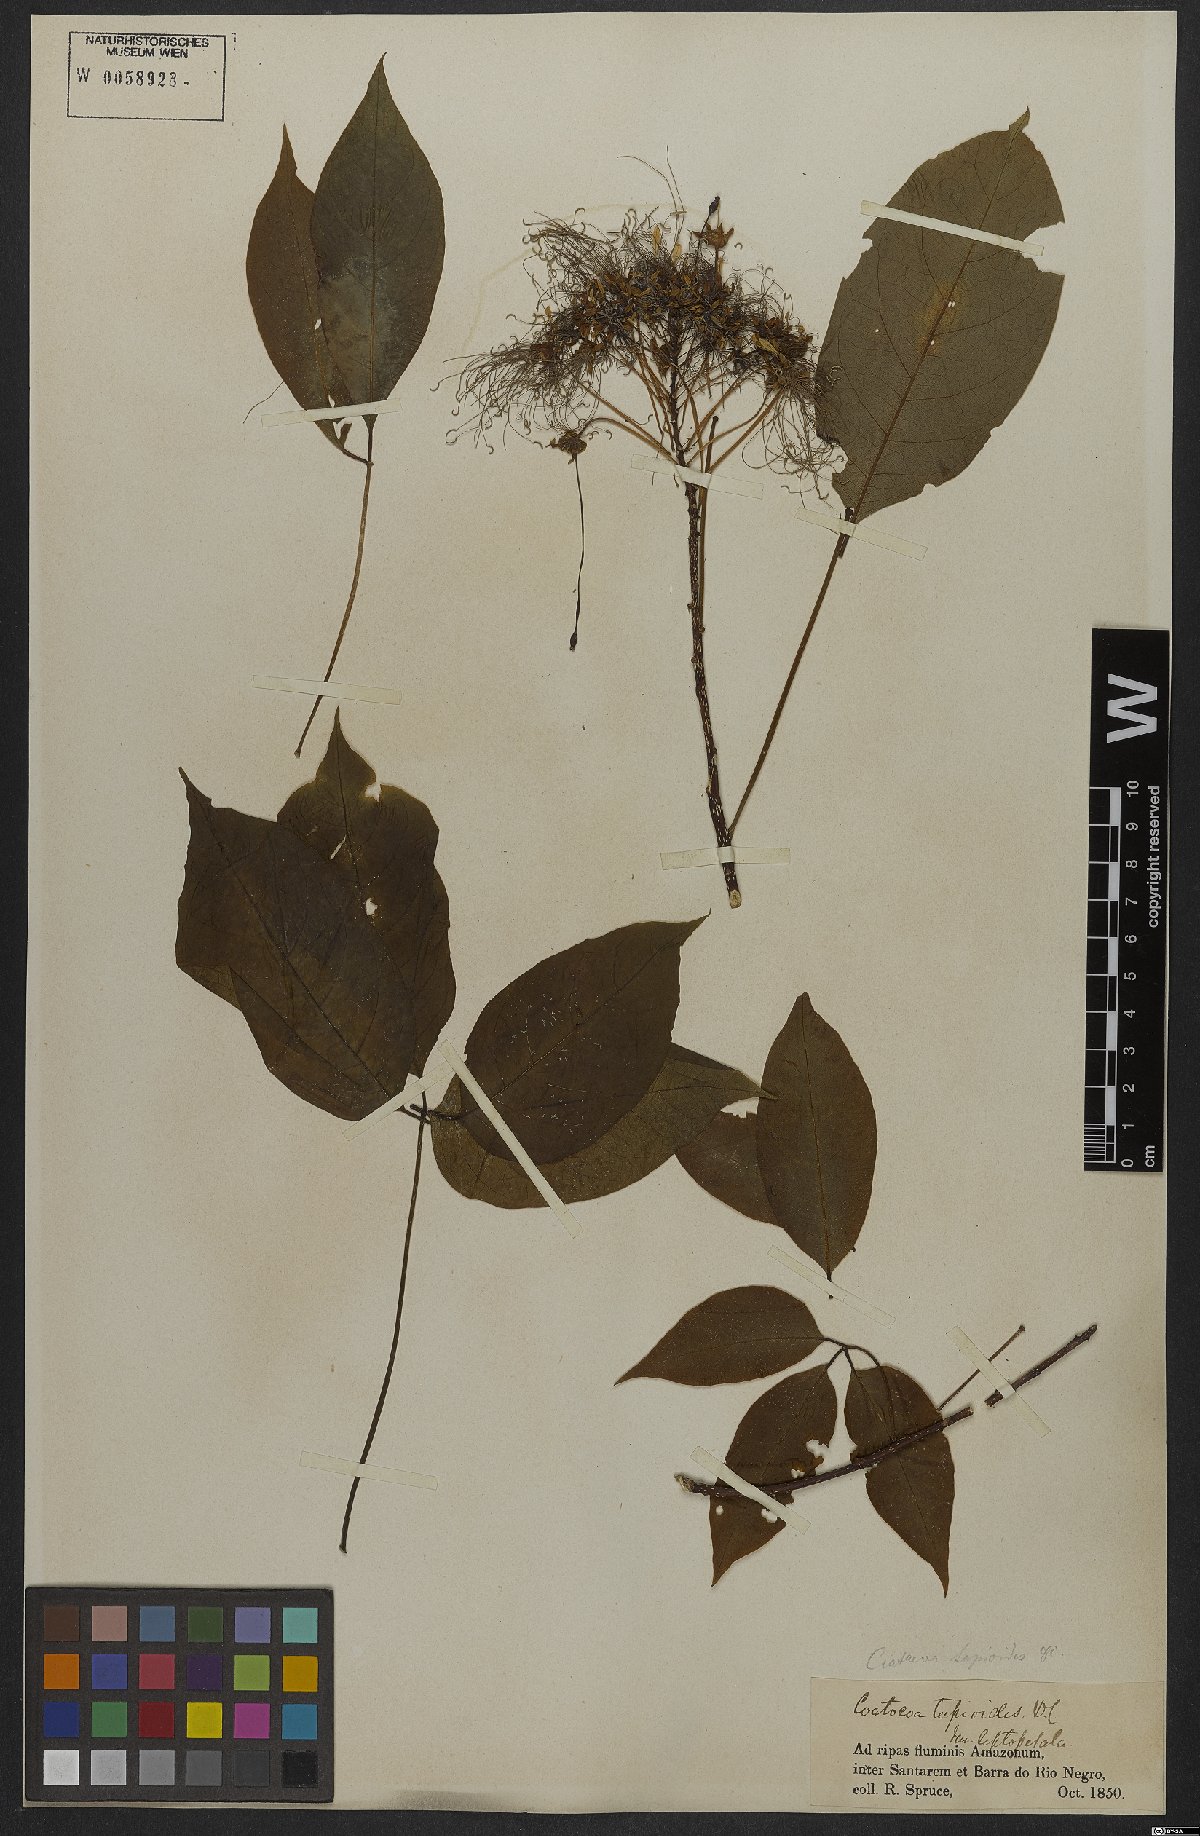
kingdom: Plantae
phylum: Tracheophyta
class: Magnoliopsida
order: Brassicales
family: Capparaceae
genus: Crateva
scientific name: Crateva tapia
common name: Garlic-pear
